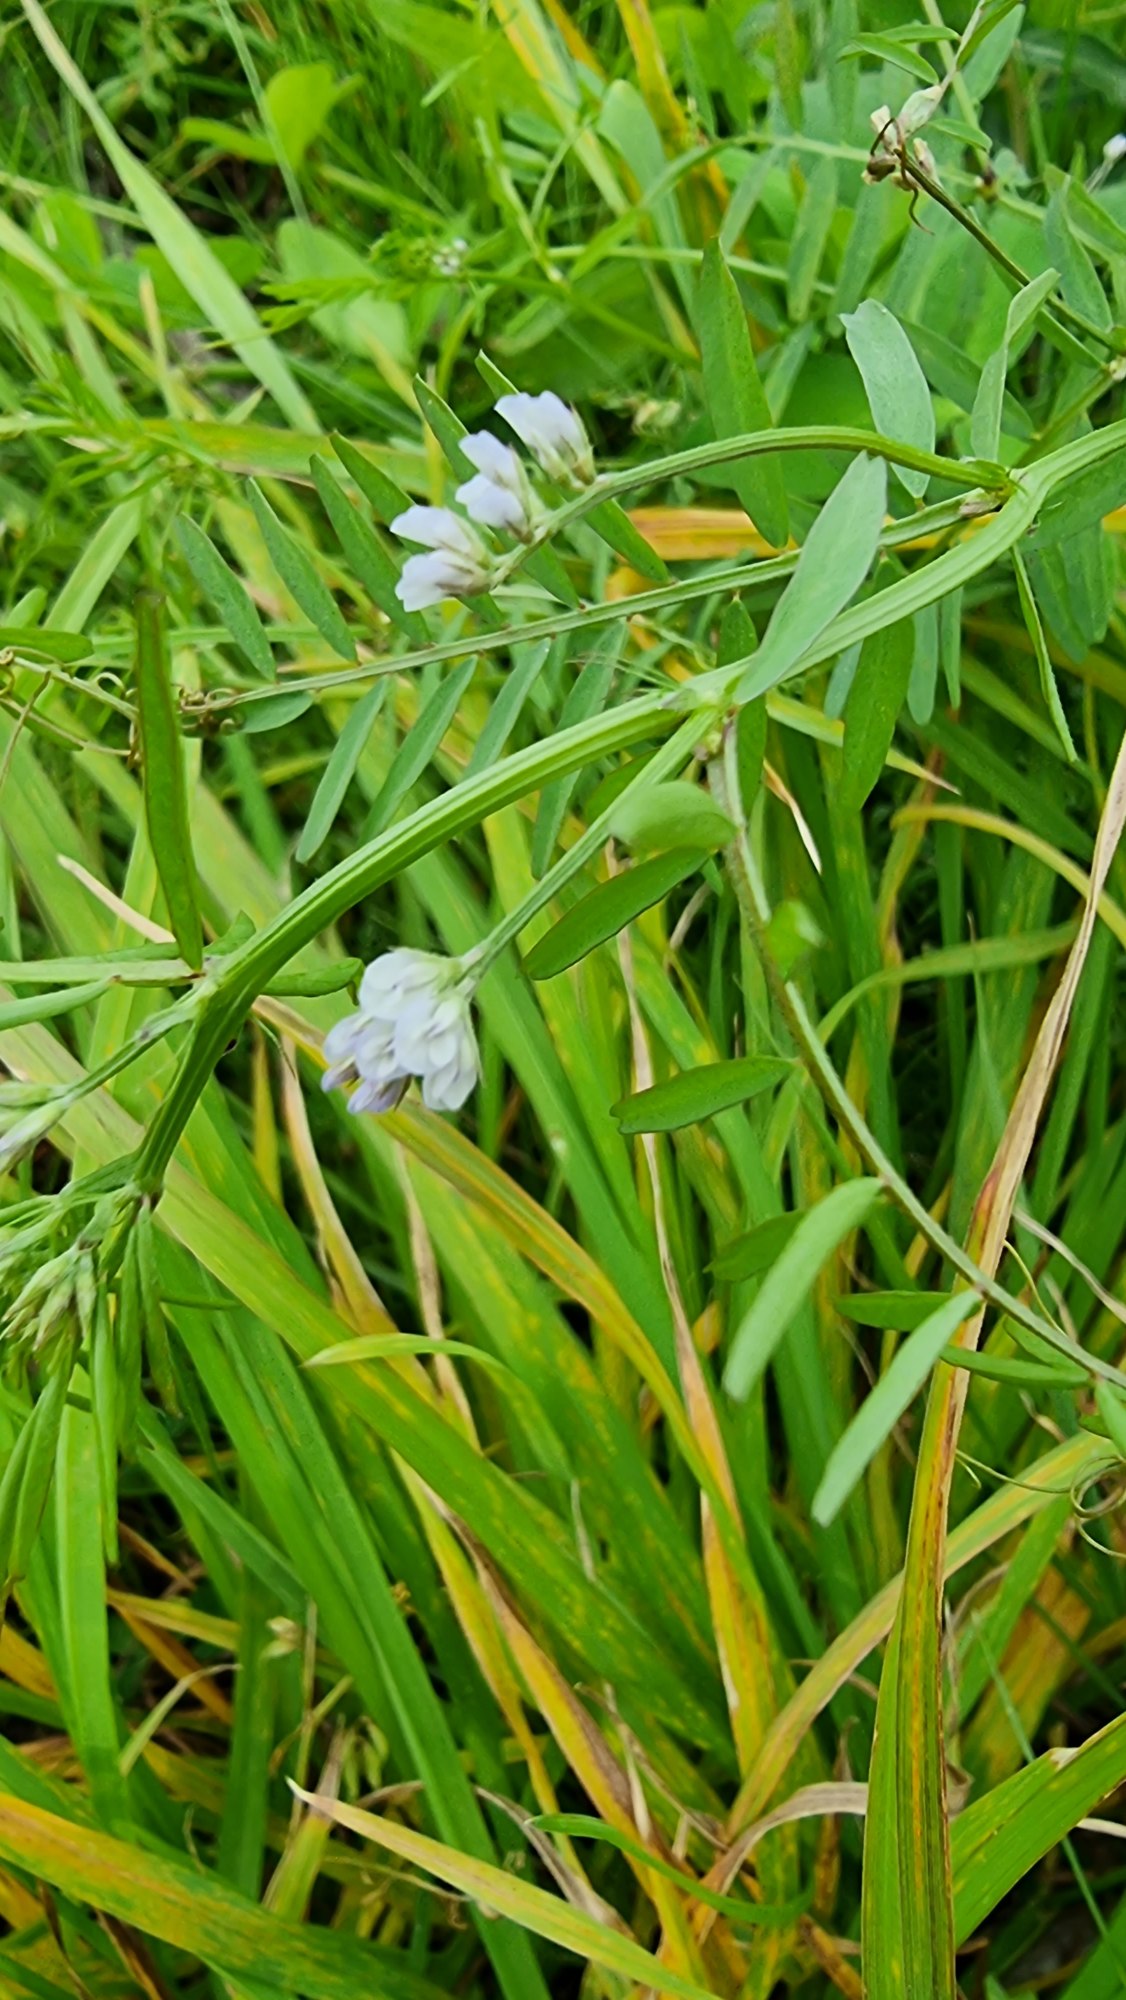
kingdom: Plantae
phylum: Tracheophyta
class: Magnoliopsida
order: Fabales
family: Fabaceae
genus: Vicia
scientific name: Vicia hirsuta
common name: Tofrøet vikke
